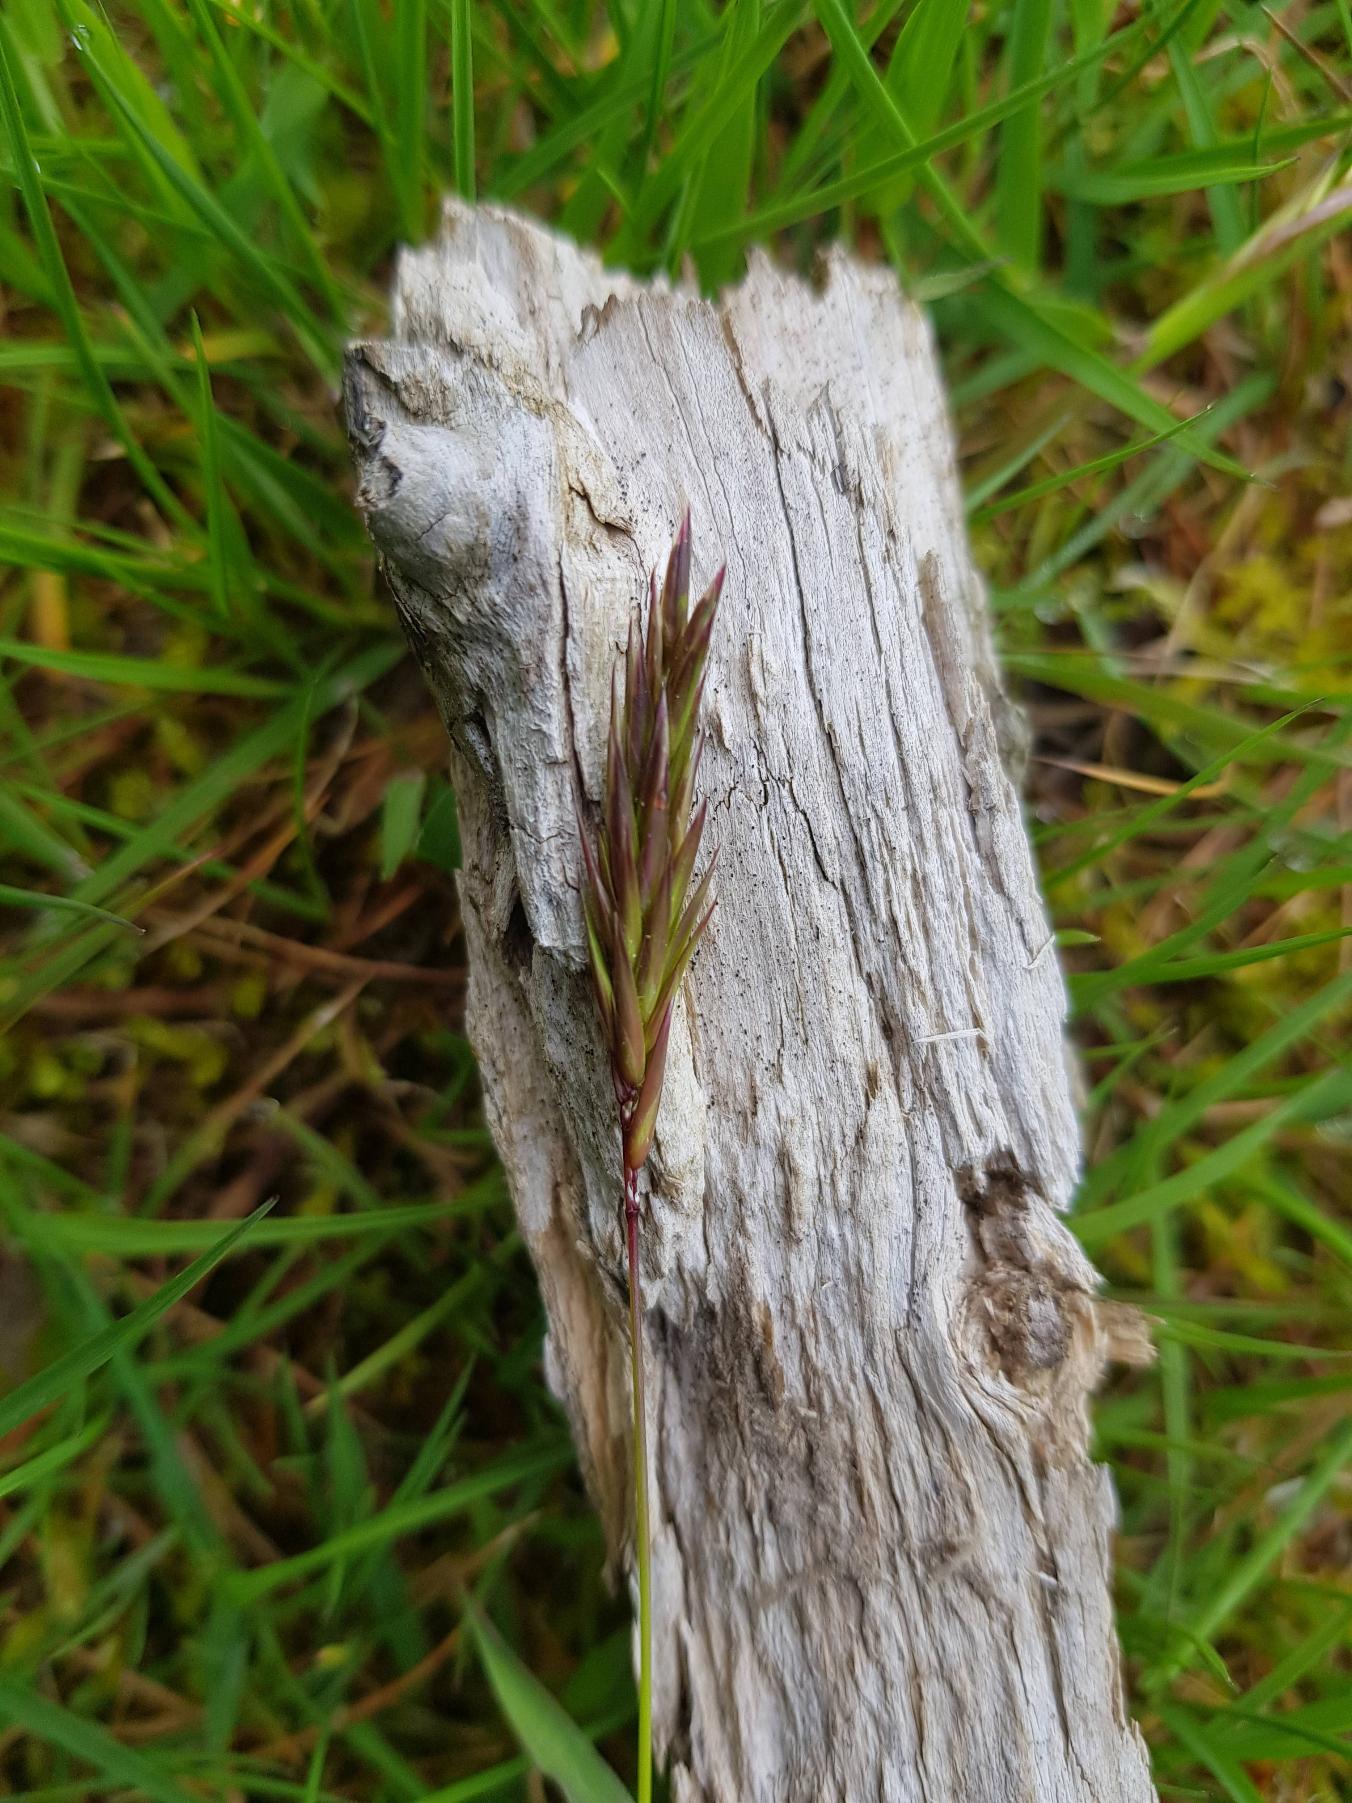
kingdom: Plantae
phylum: Tracheophyta
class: Liliopsida
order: Poales
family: Poaceae
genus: Anthoxanthum
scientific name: Anthoxanthum odoratum
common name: Vellugtende gulaks
